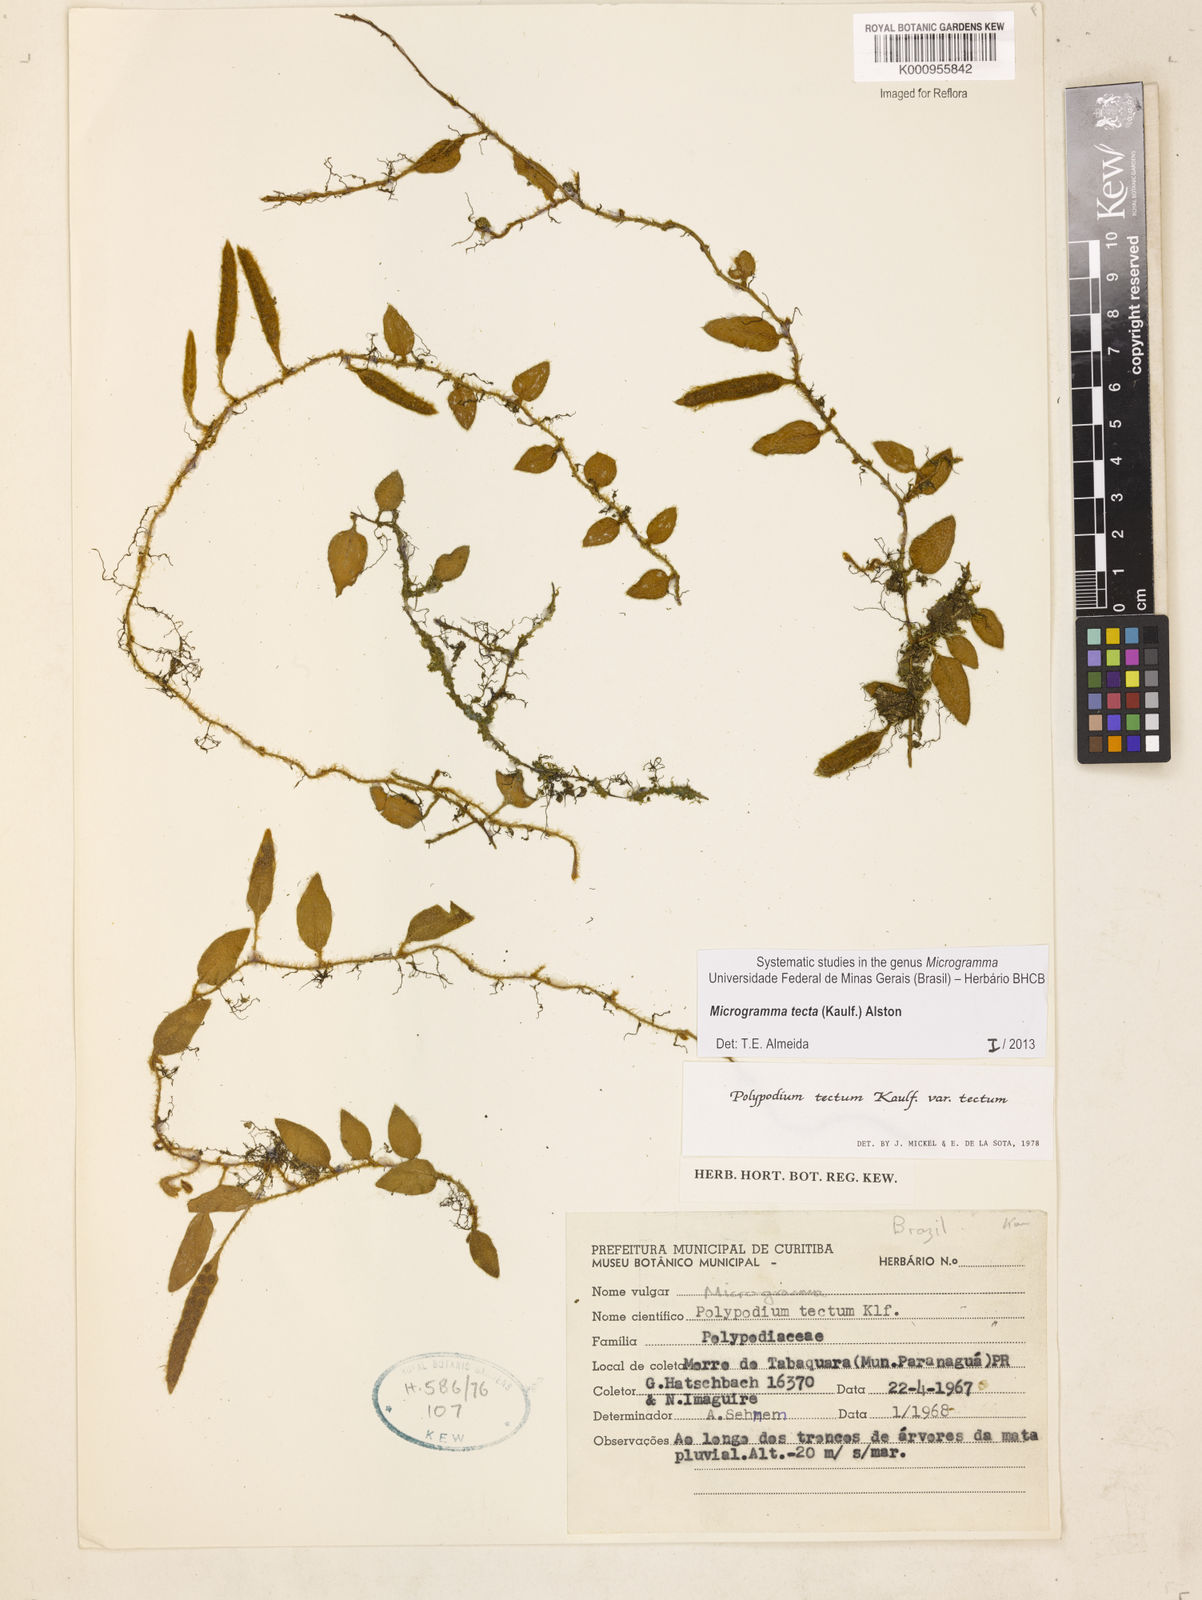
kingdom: Plantae
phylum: Tracheophyta
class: Polypodiopsida
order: Polypodiales
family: Polypodiaceae
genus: Microgramma
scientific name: Microgramma tecta
